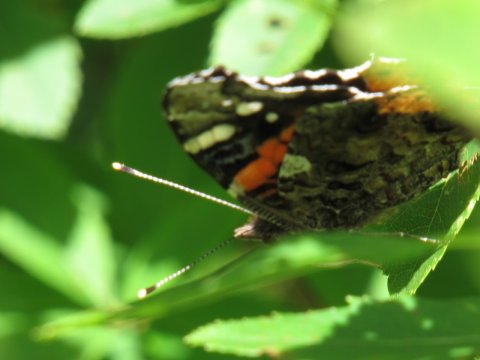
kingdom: Animalia
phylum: Arthropoda
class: Insecta
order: Lepidoptera
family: Nymphalidae
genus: Vanessa
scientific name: Vanessa atalanta
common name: Red Admiral
